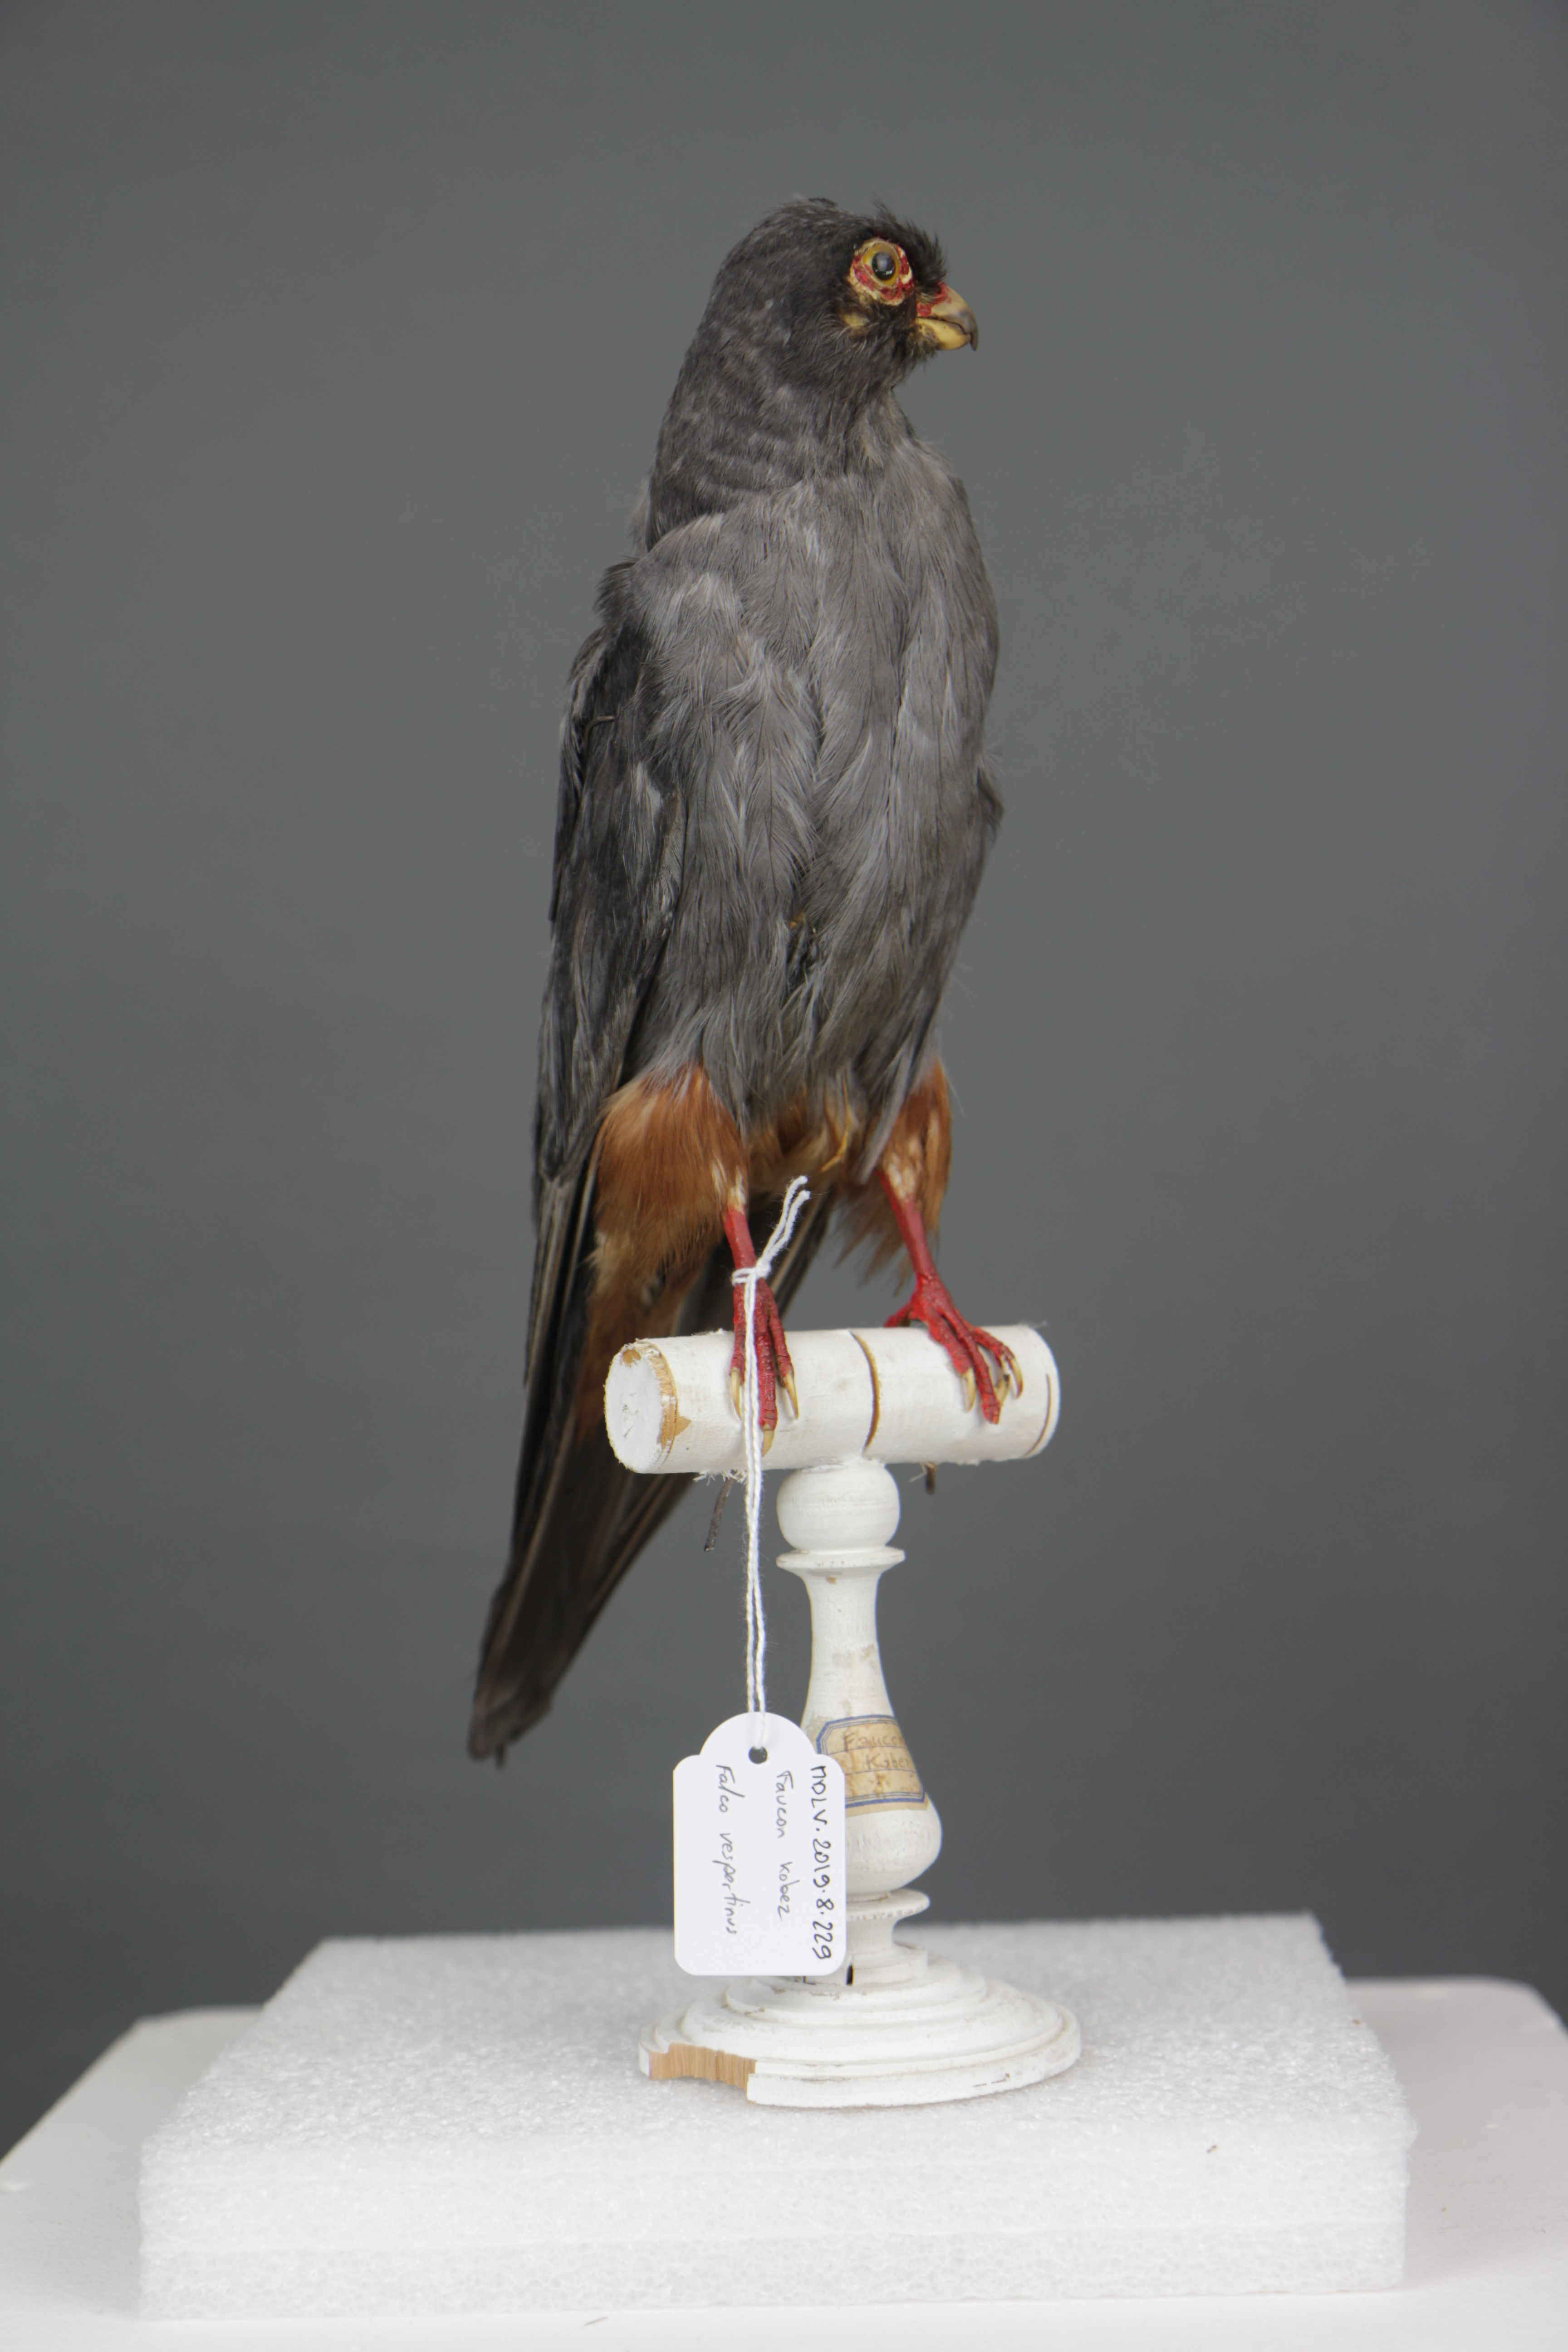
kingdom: Animalia
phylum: Chordata
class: Aves
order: Falconiformes
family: Falconidae
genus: Falco
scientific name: Falco vespertinus
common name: Red-footed falcon
